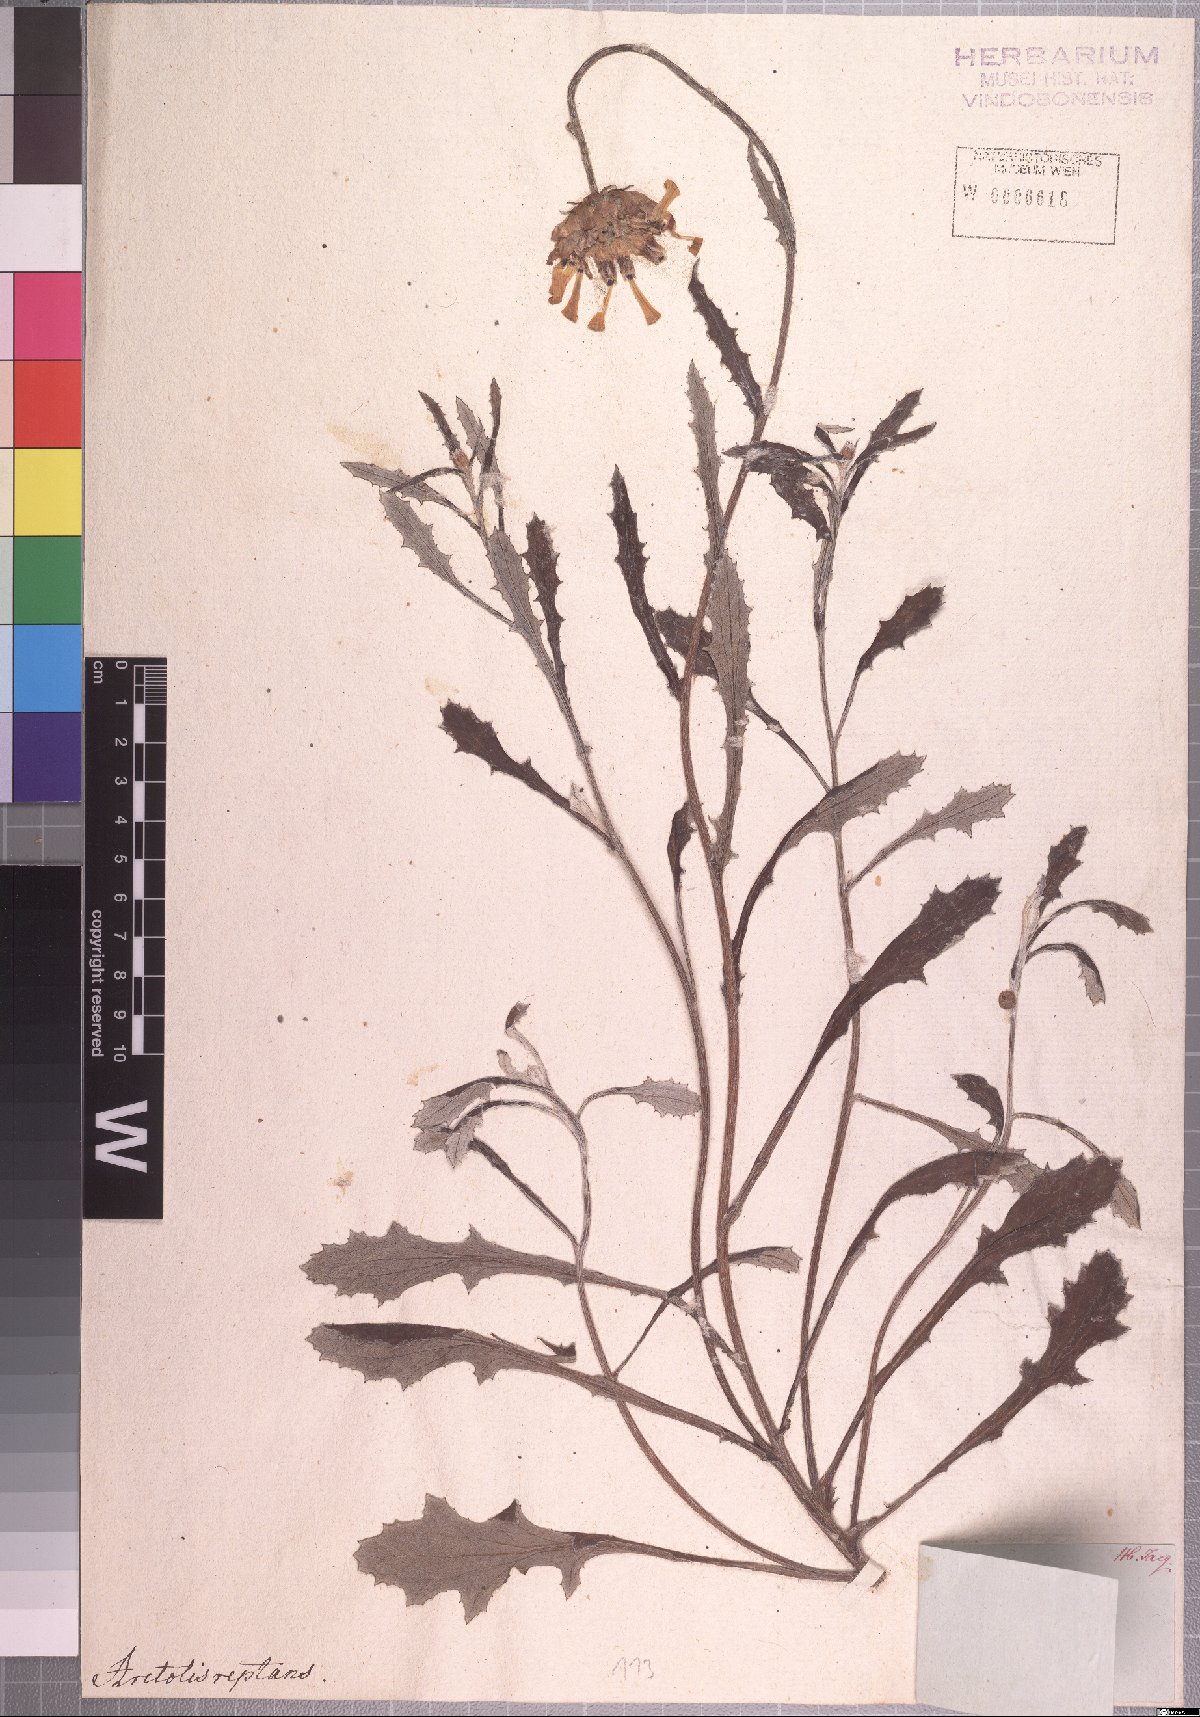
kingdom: Plantae
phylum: Tracheophyta
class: Magnoliopsida
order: Asterales
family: Asteraceae
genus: Arctotis
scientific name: Arctotis reptans
